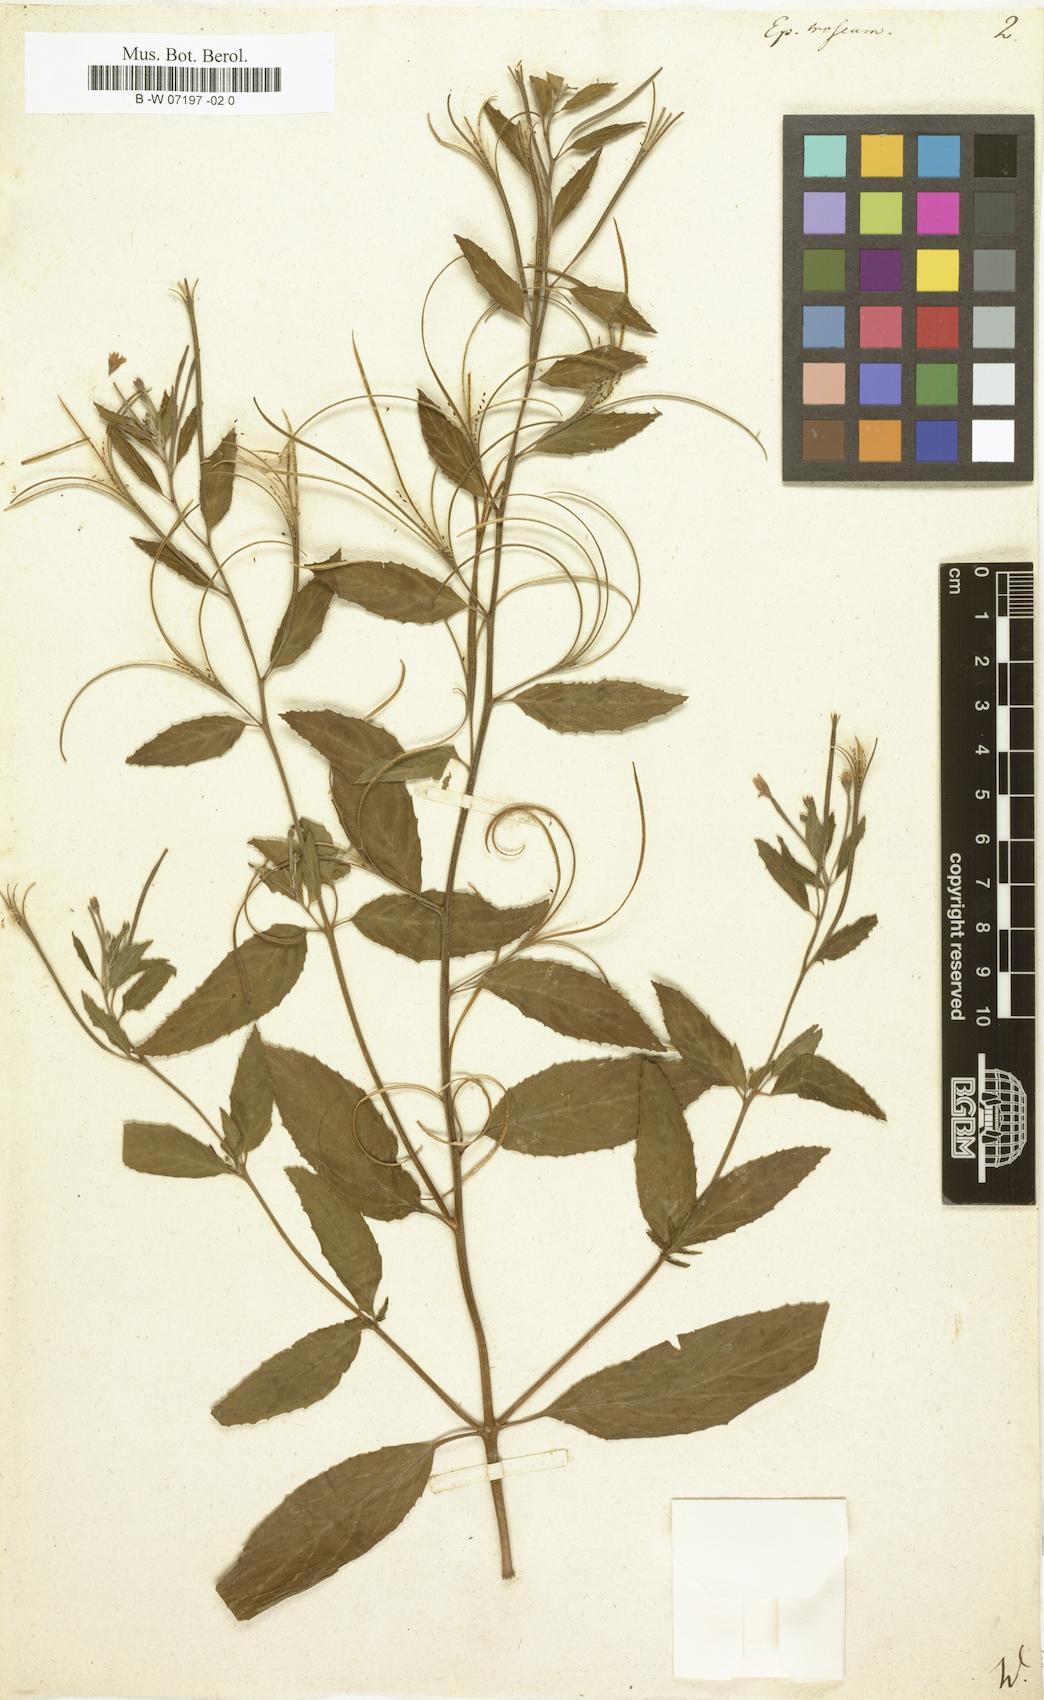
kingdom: Plantae
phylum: Tracheophyta
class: Magnoliopsida
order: Myrtales
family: Onagraceae
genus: Epilobium
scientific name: Epilobium roseum
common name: Pale willowherb
